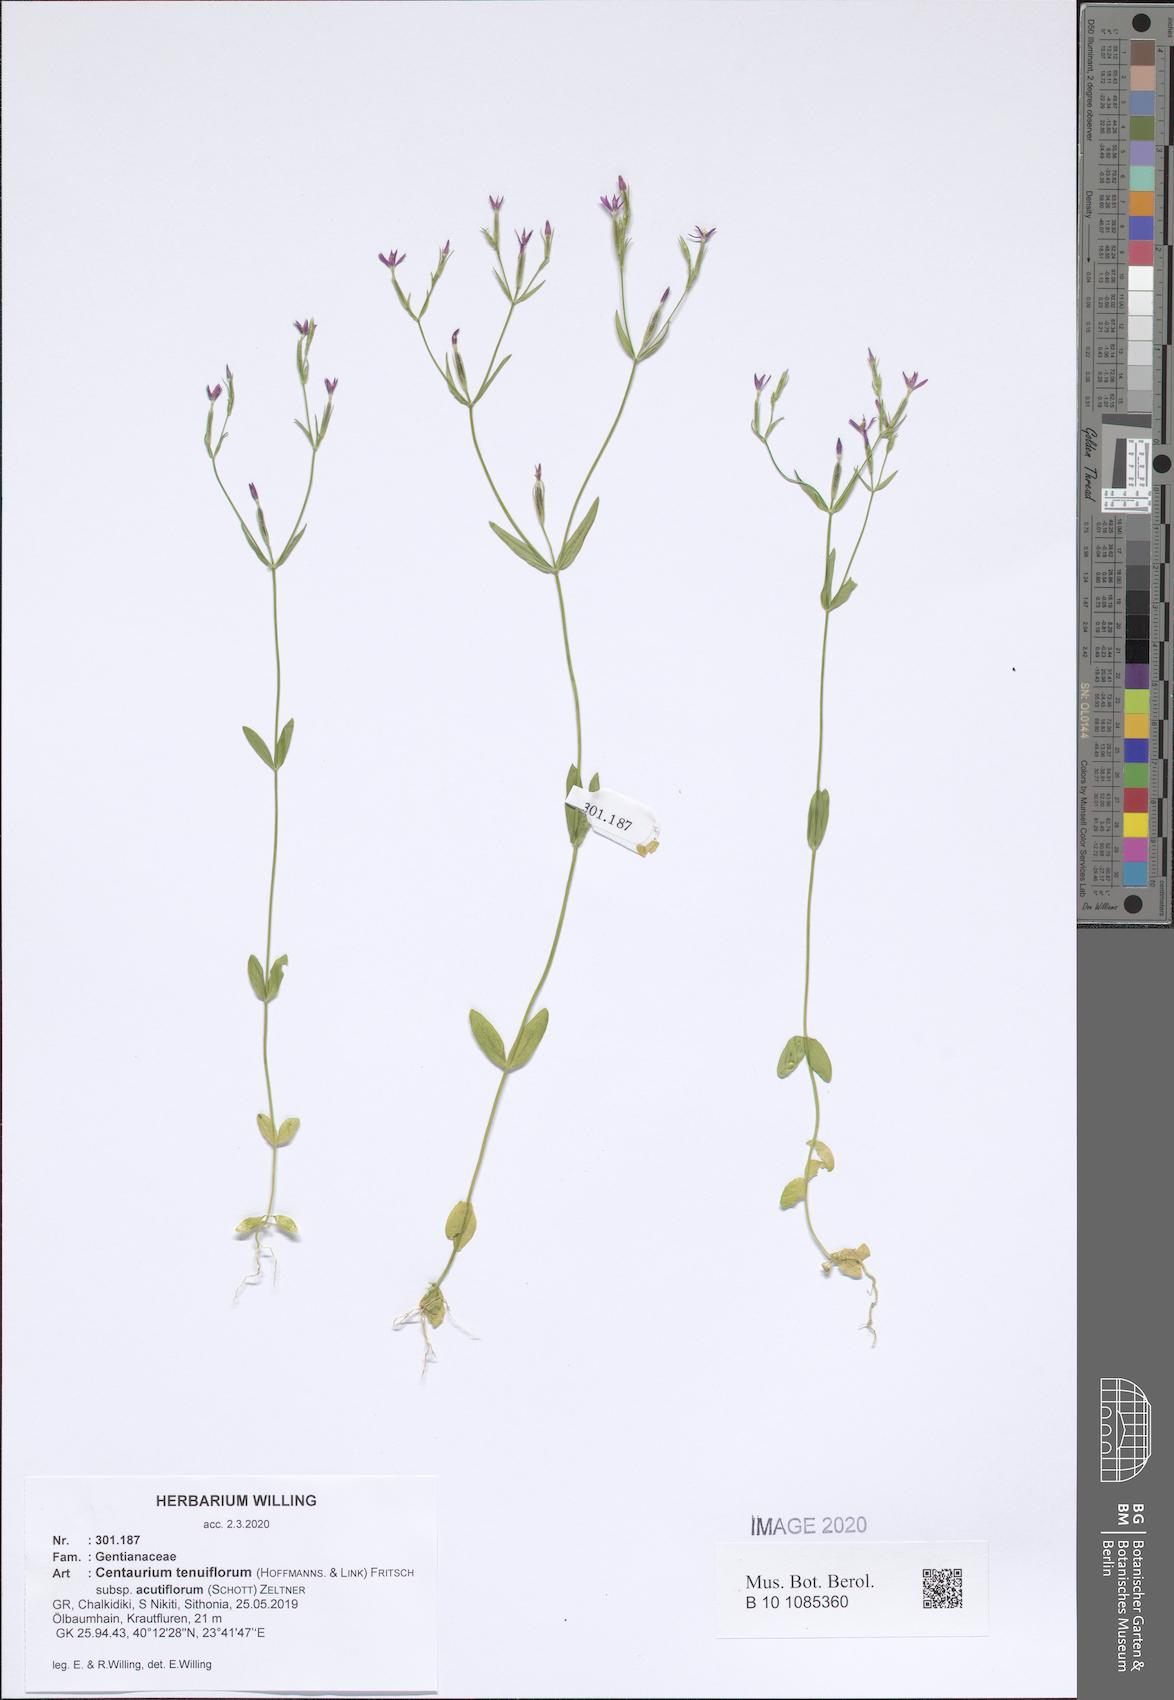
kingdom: Plantae
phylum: Tracheophyta
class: Magnoliopsida
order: Gentianales
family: Gentianaceae
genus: Centaurium
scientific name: Centaurium tenuiflorum
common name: Slender centaury
